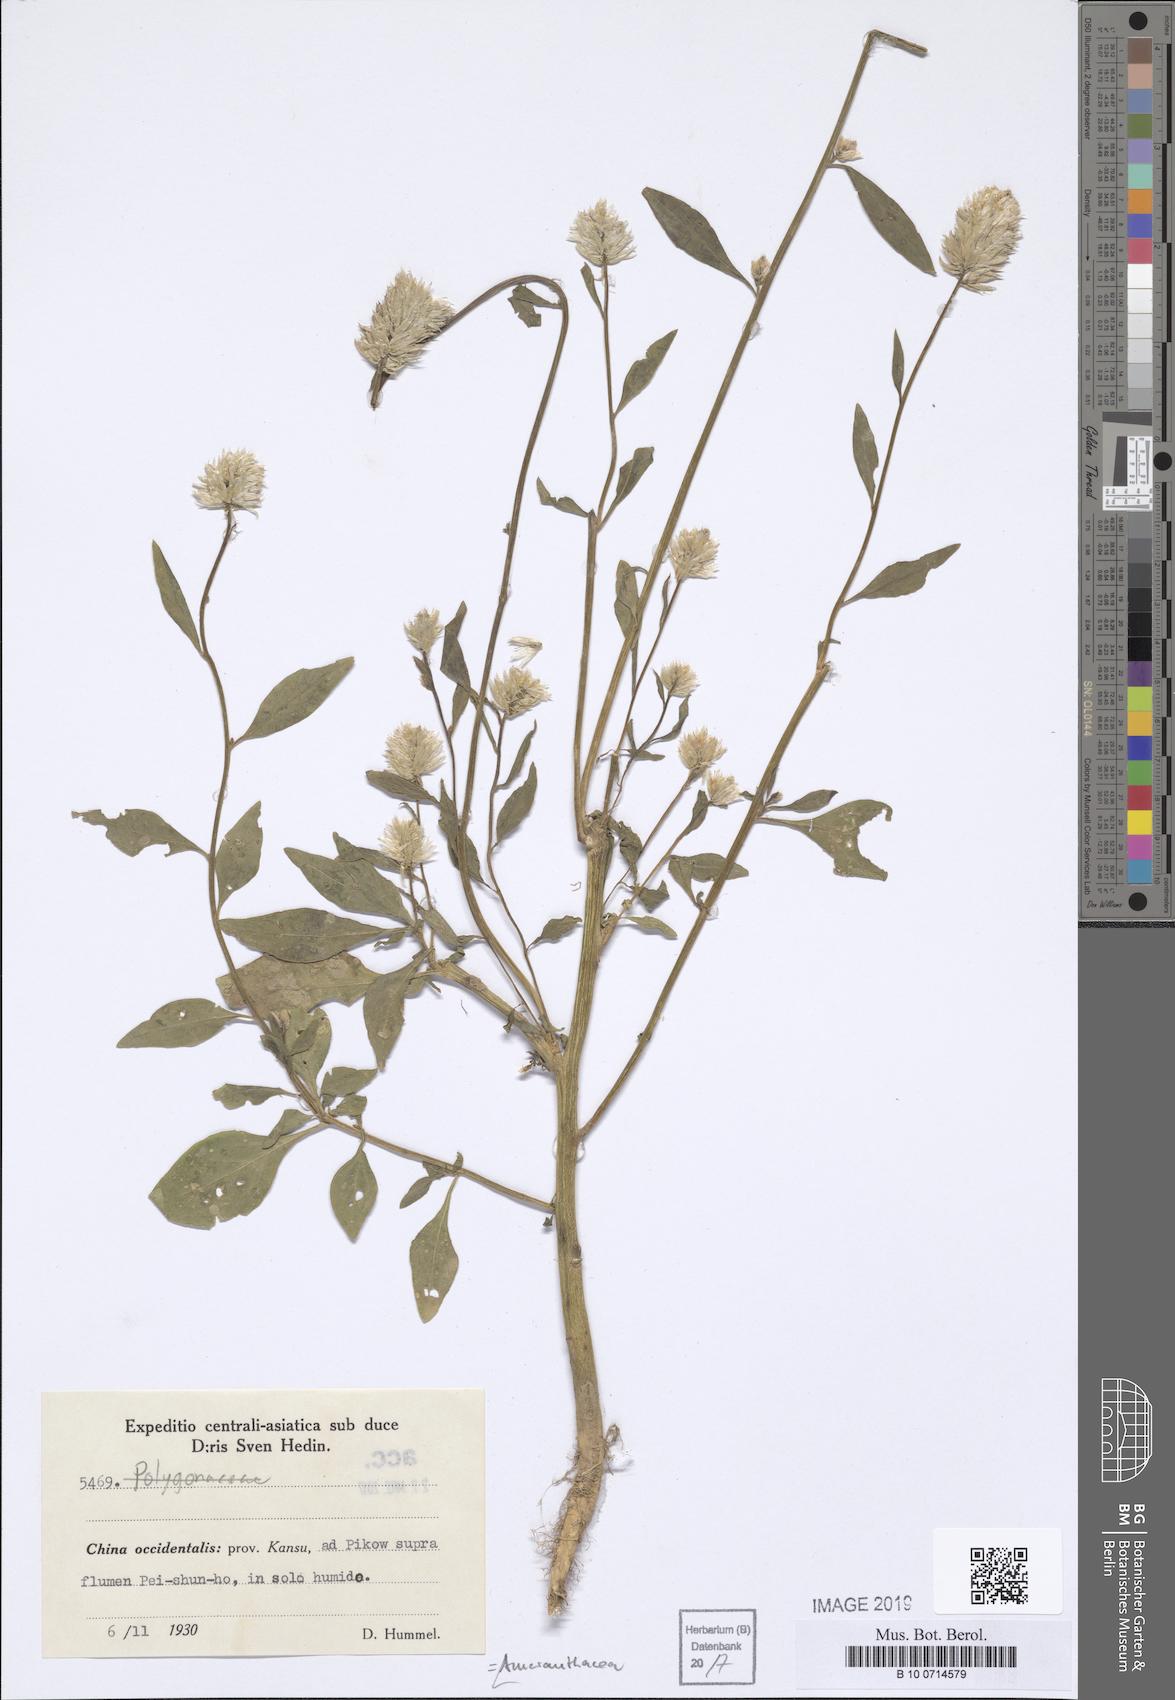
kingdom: Plantae
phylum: Tracheophyta
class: Magnoliopsida
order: Caryophyllales
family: Amaranthaceae
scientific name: Amaranthaceae
